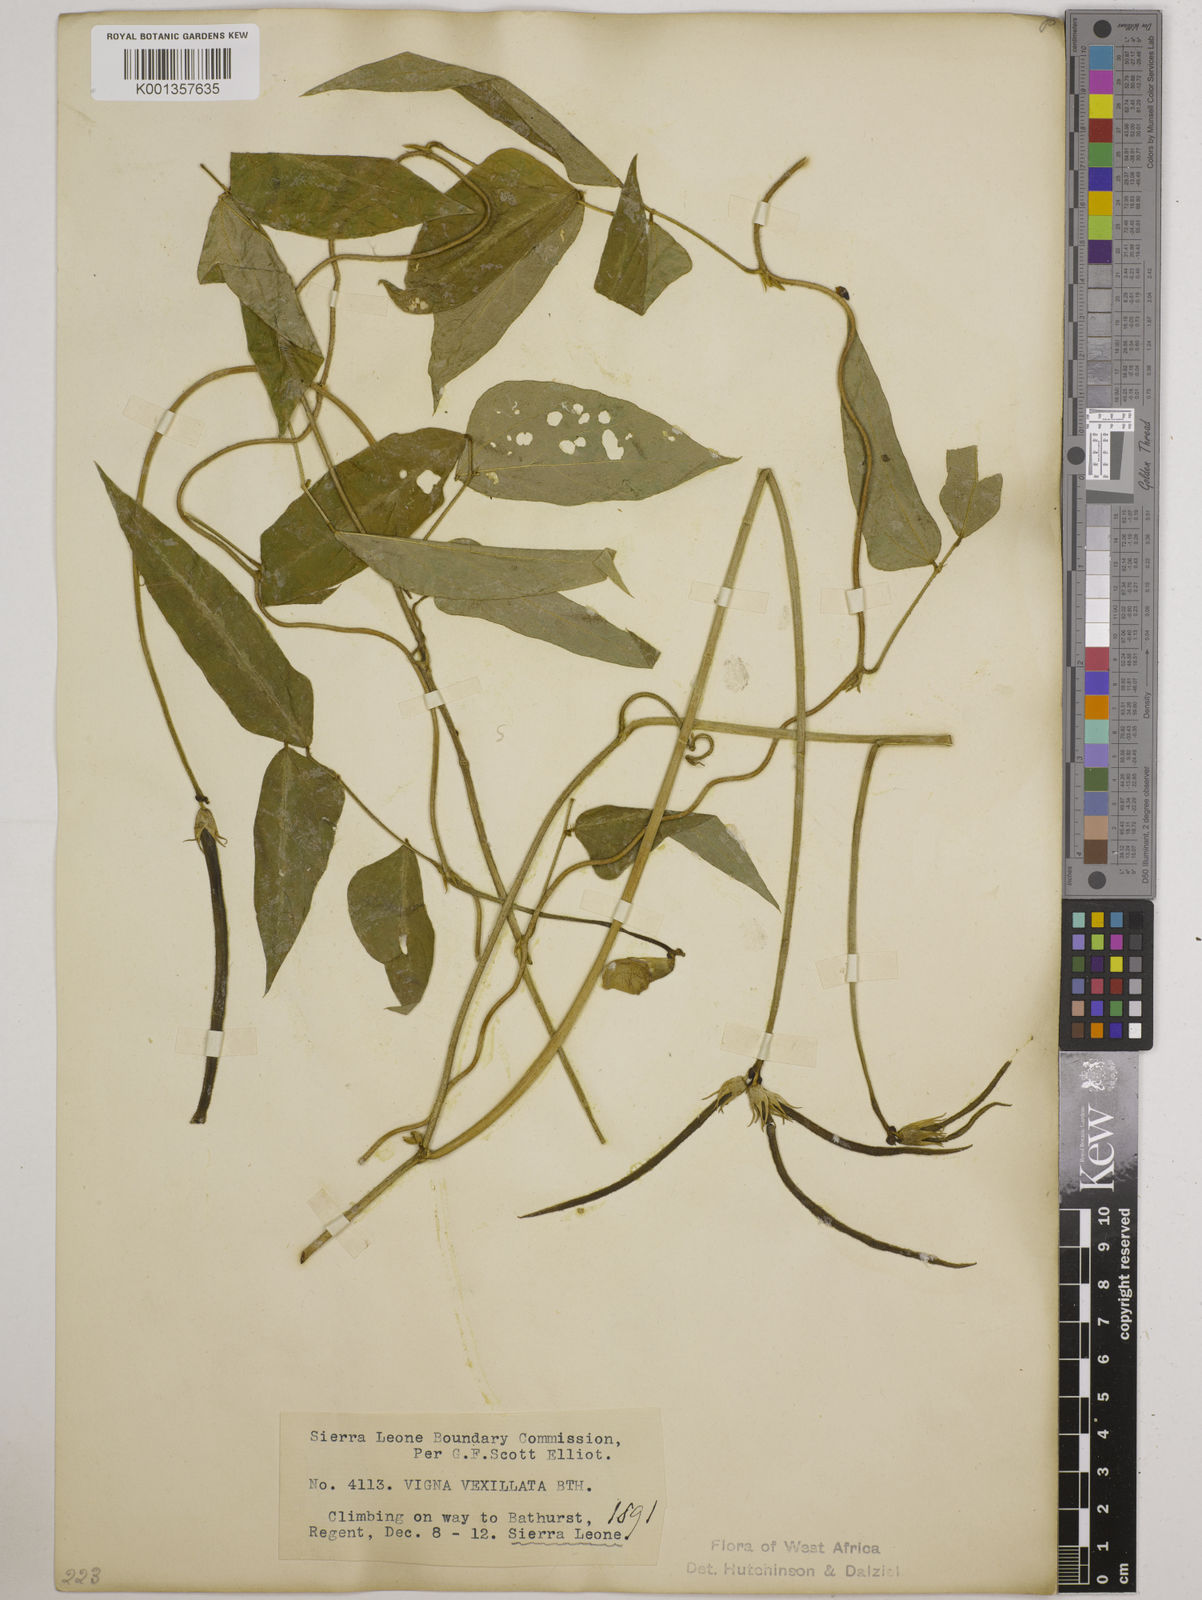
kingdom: Plantae
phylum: Tracheophyta
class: Magnoliopsida
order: Fabales
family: Fabaceae
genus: Vigna
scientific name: Vigna vexillata
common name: Zombi pea
